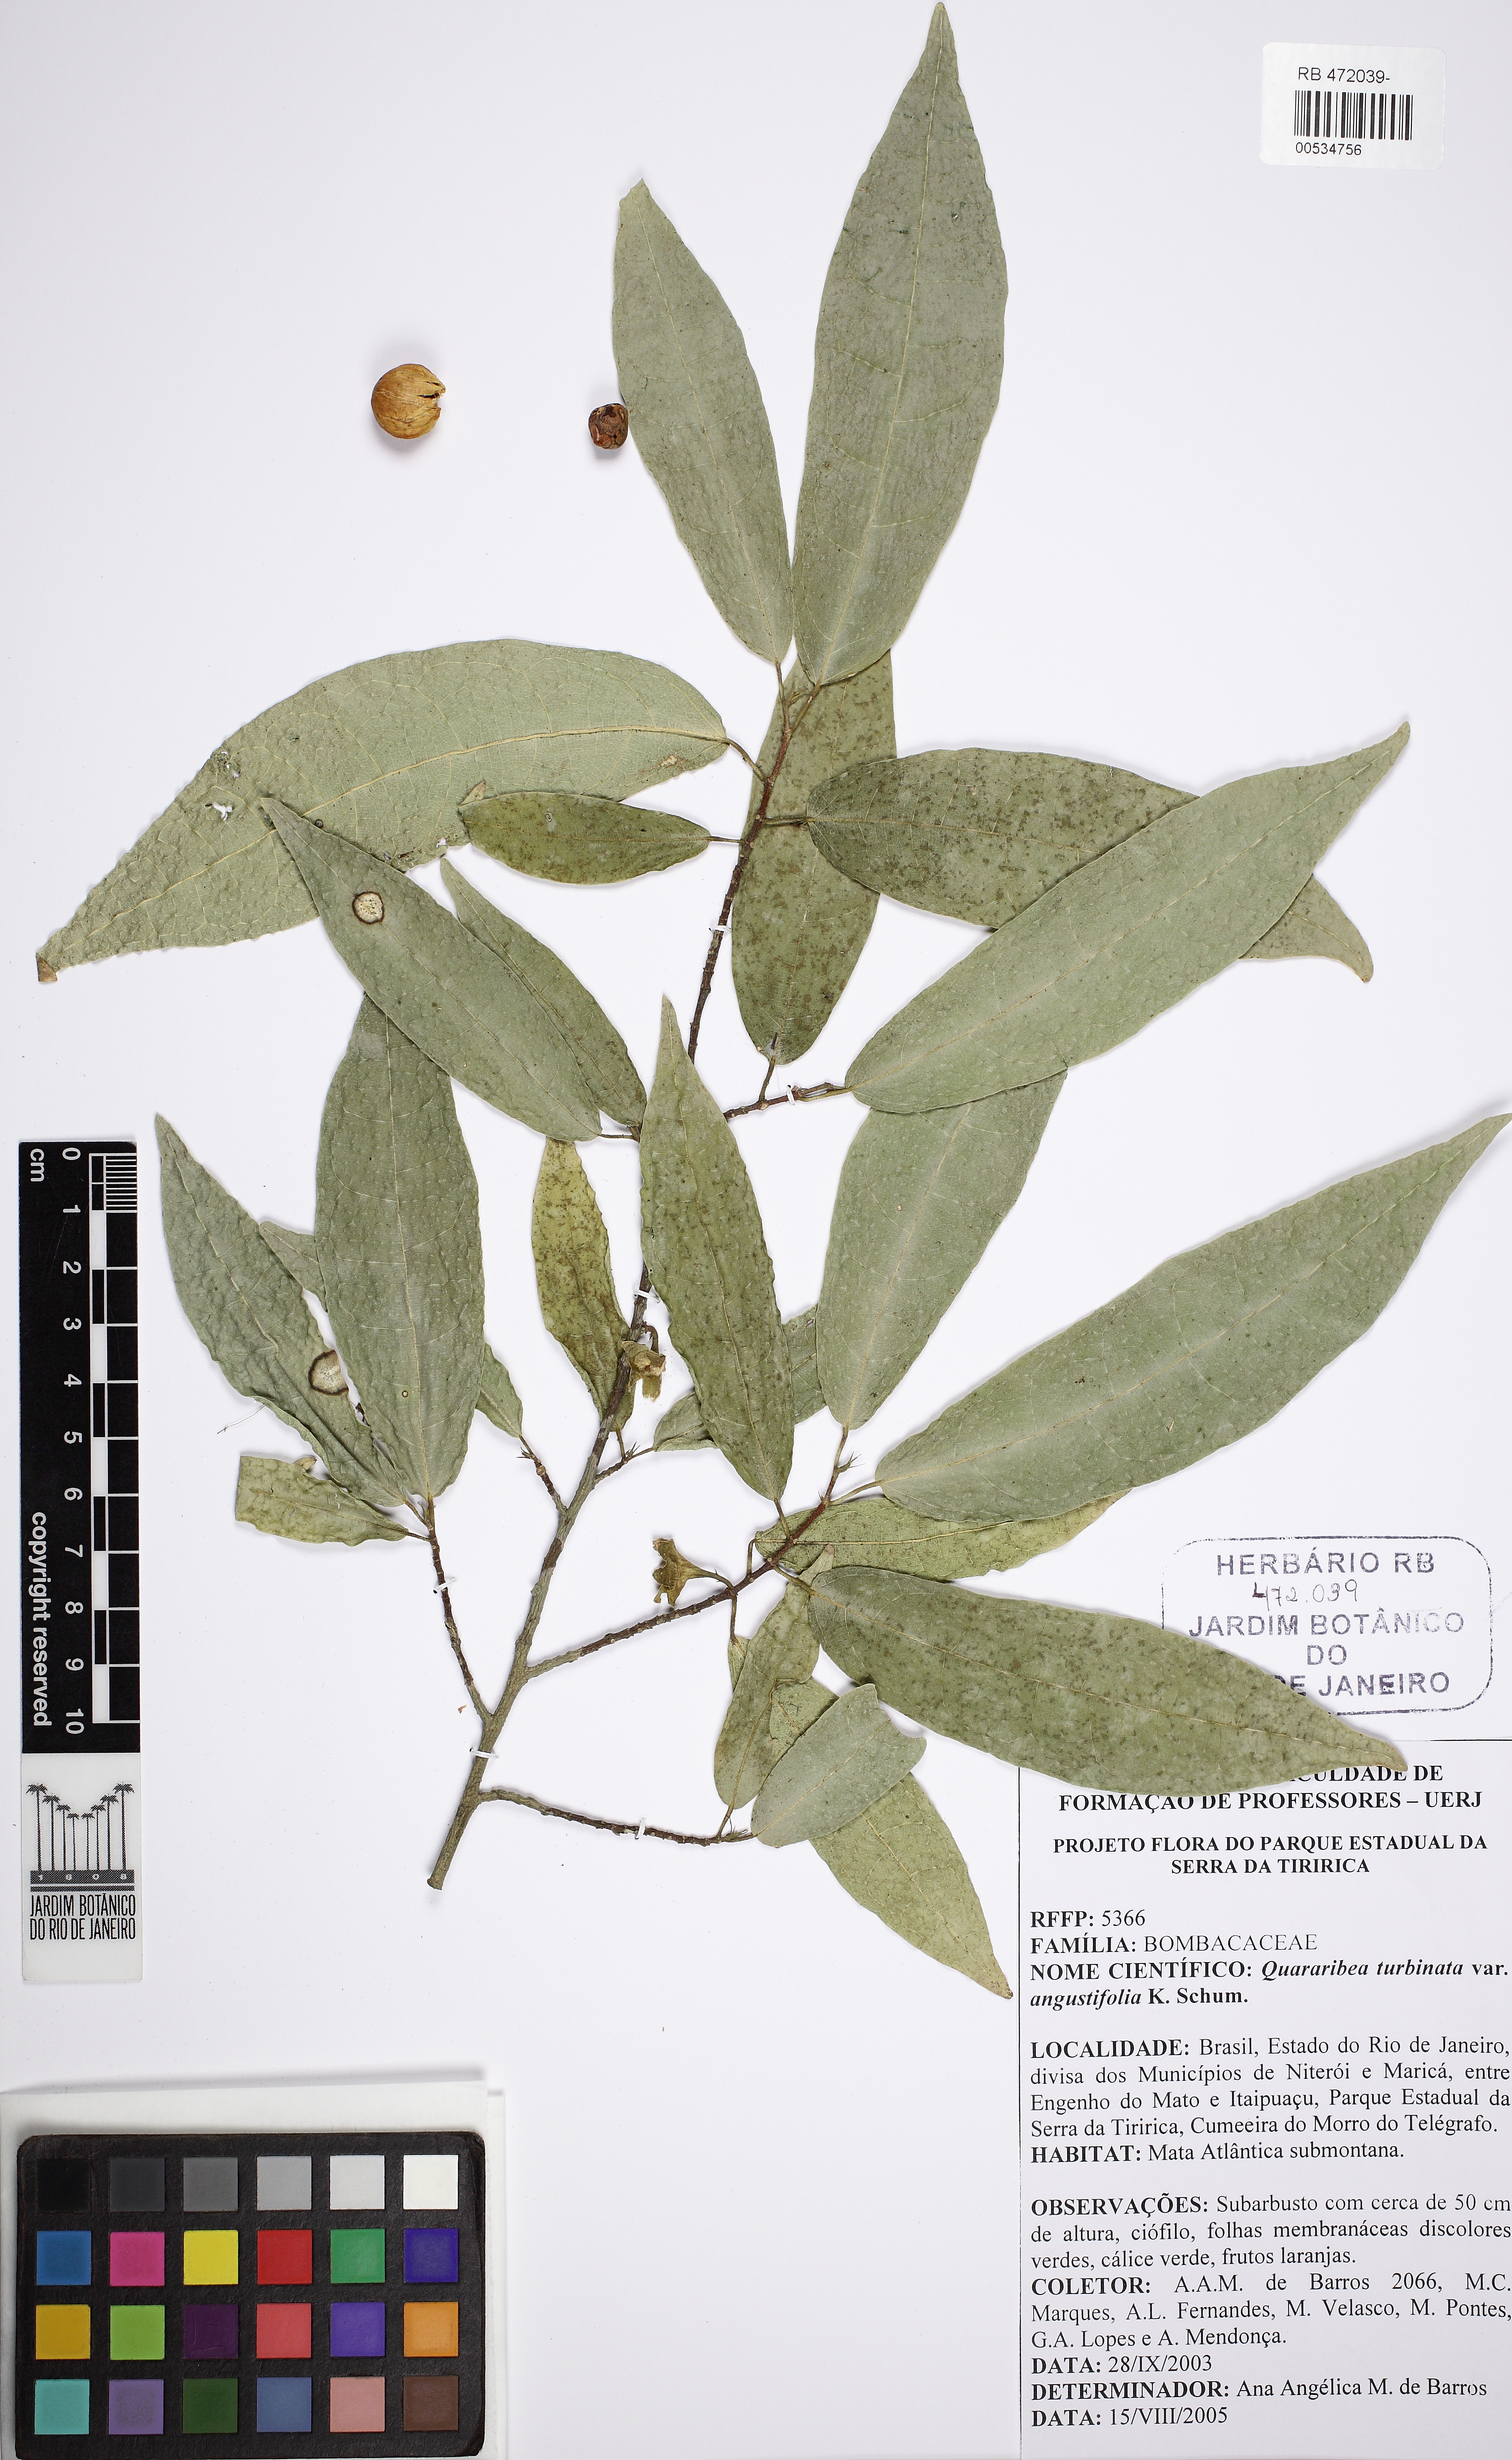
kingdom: Plantae
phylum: Tracheophyta
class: Magnoliopsida
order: Malvales
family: Malvaceae
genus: Quararibea
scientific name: Quararibea angustifolia
